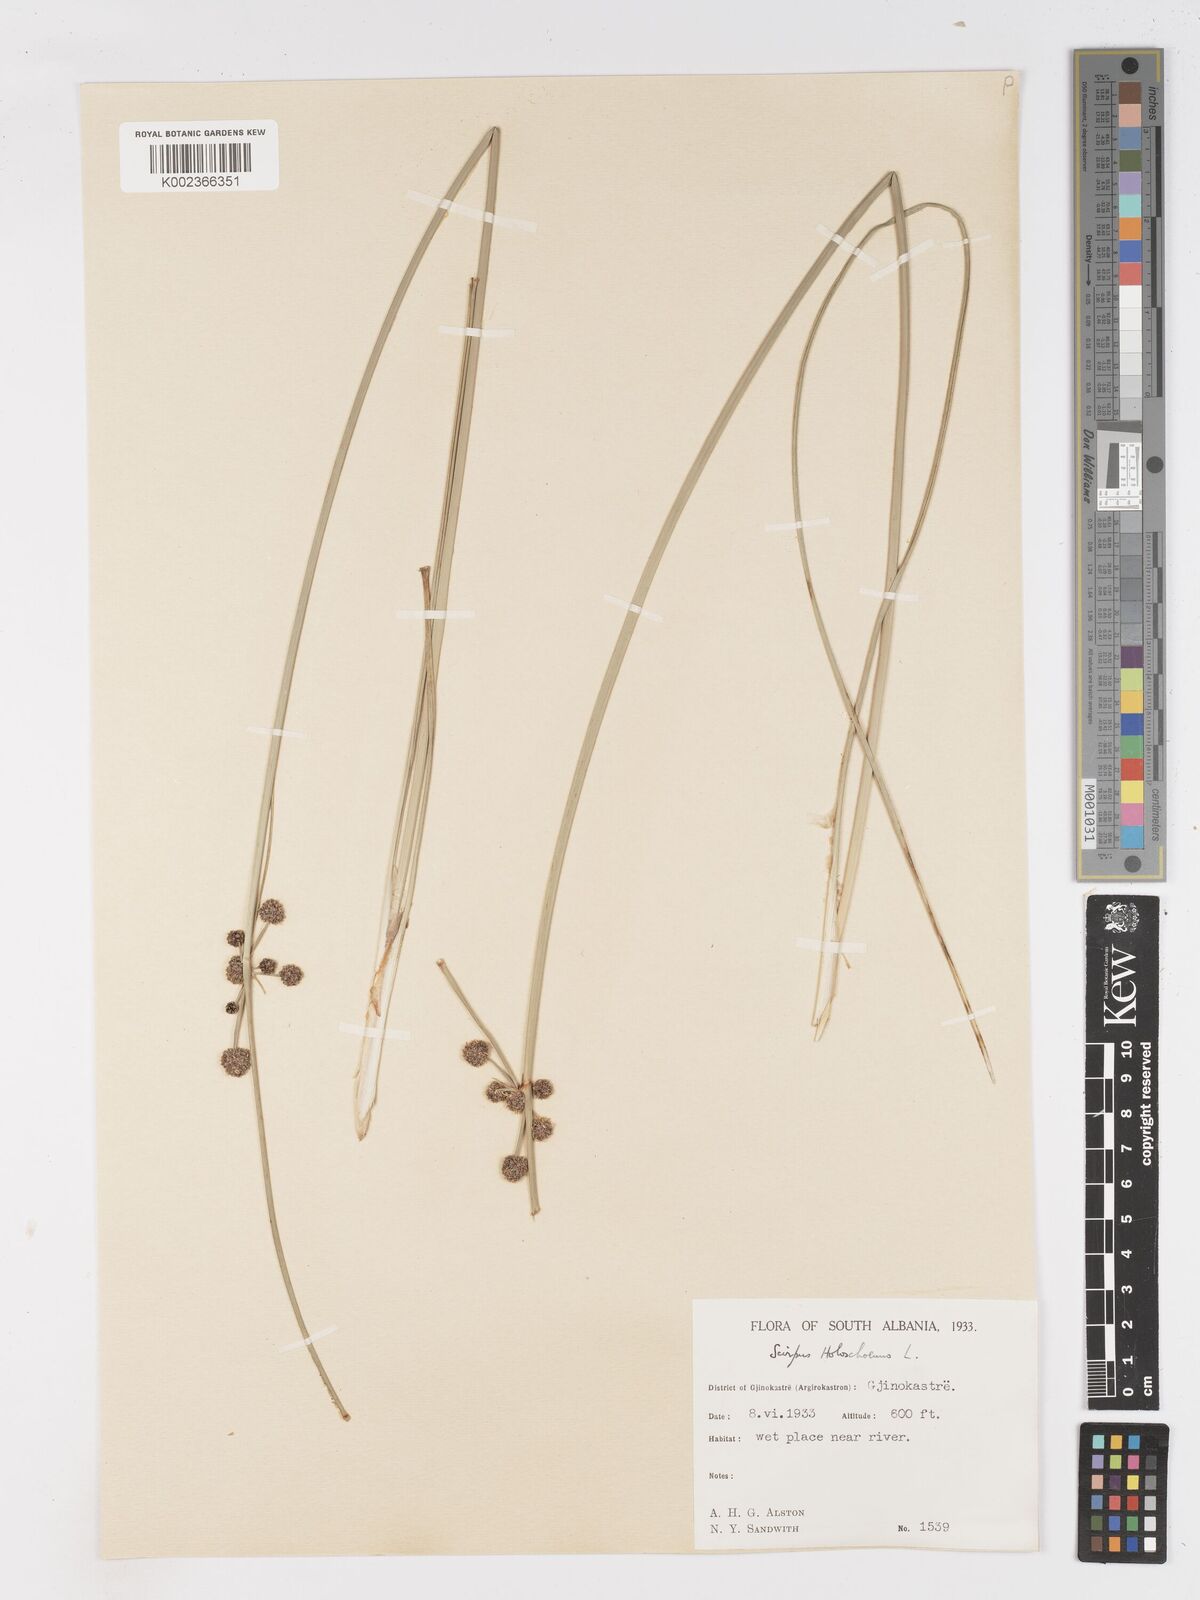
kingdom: Plantae
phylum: Tracheophyta
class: Liliopsida
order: Poales
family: Cyperaceae
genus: Scirpoides
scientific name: Scirpoides holoschoenus
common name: Round-headed club-rush
